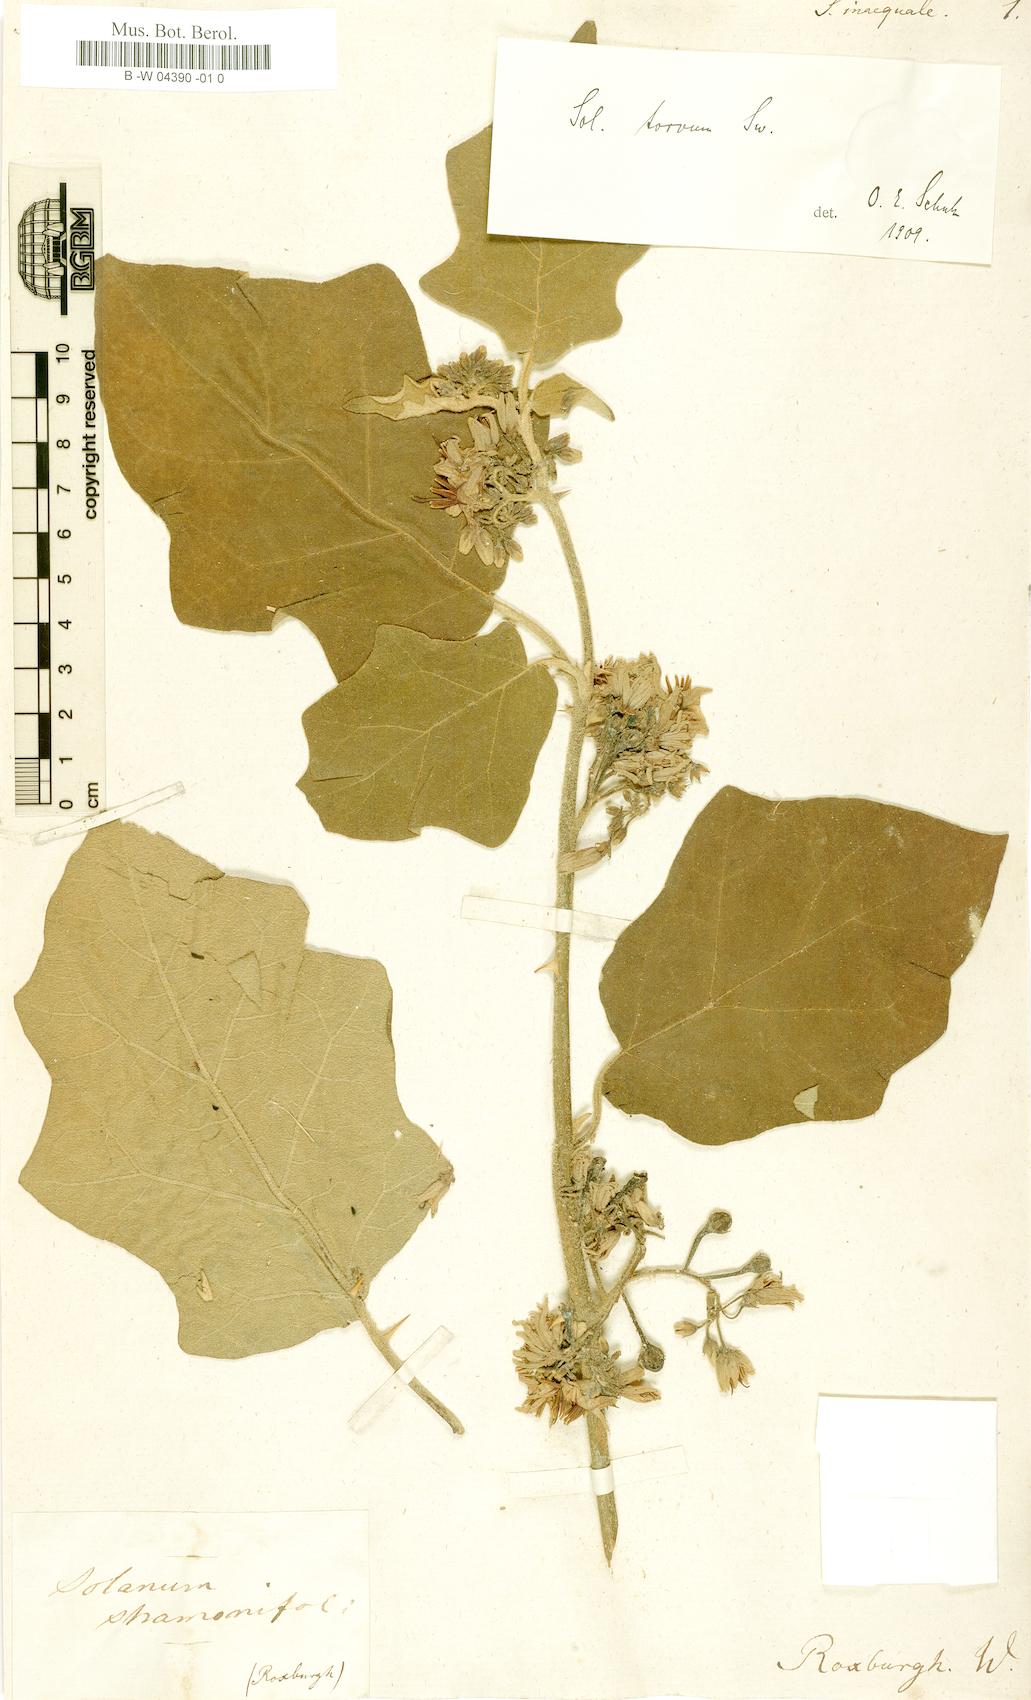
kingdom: Plantae
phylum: Tracheophyta
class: Magnoliopsida
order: Solanales
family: Solanaceae
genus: Solanum
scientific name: Solanum
